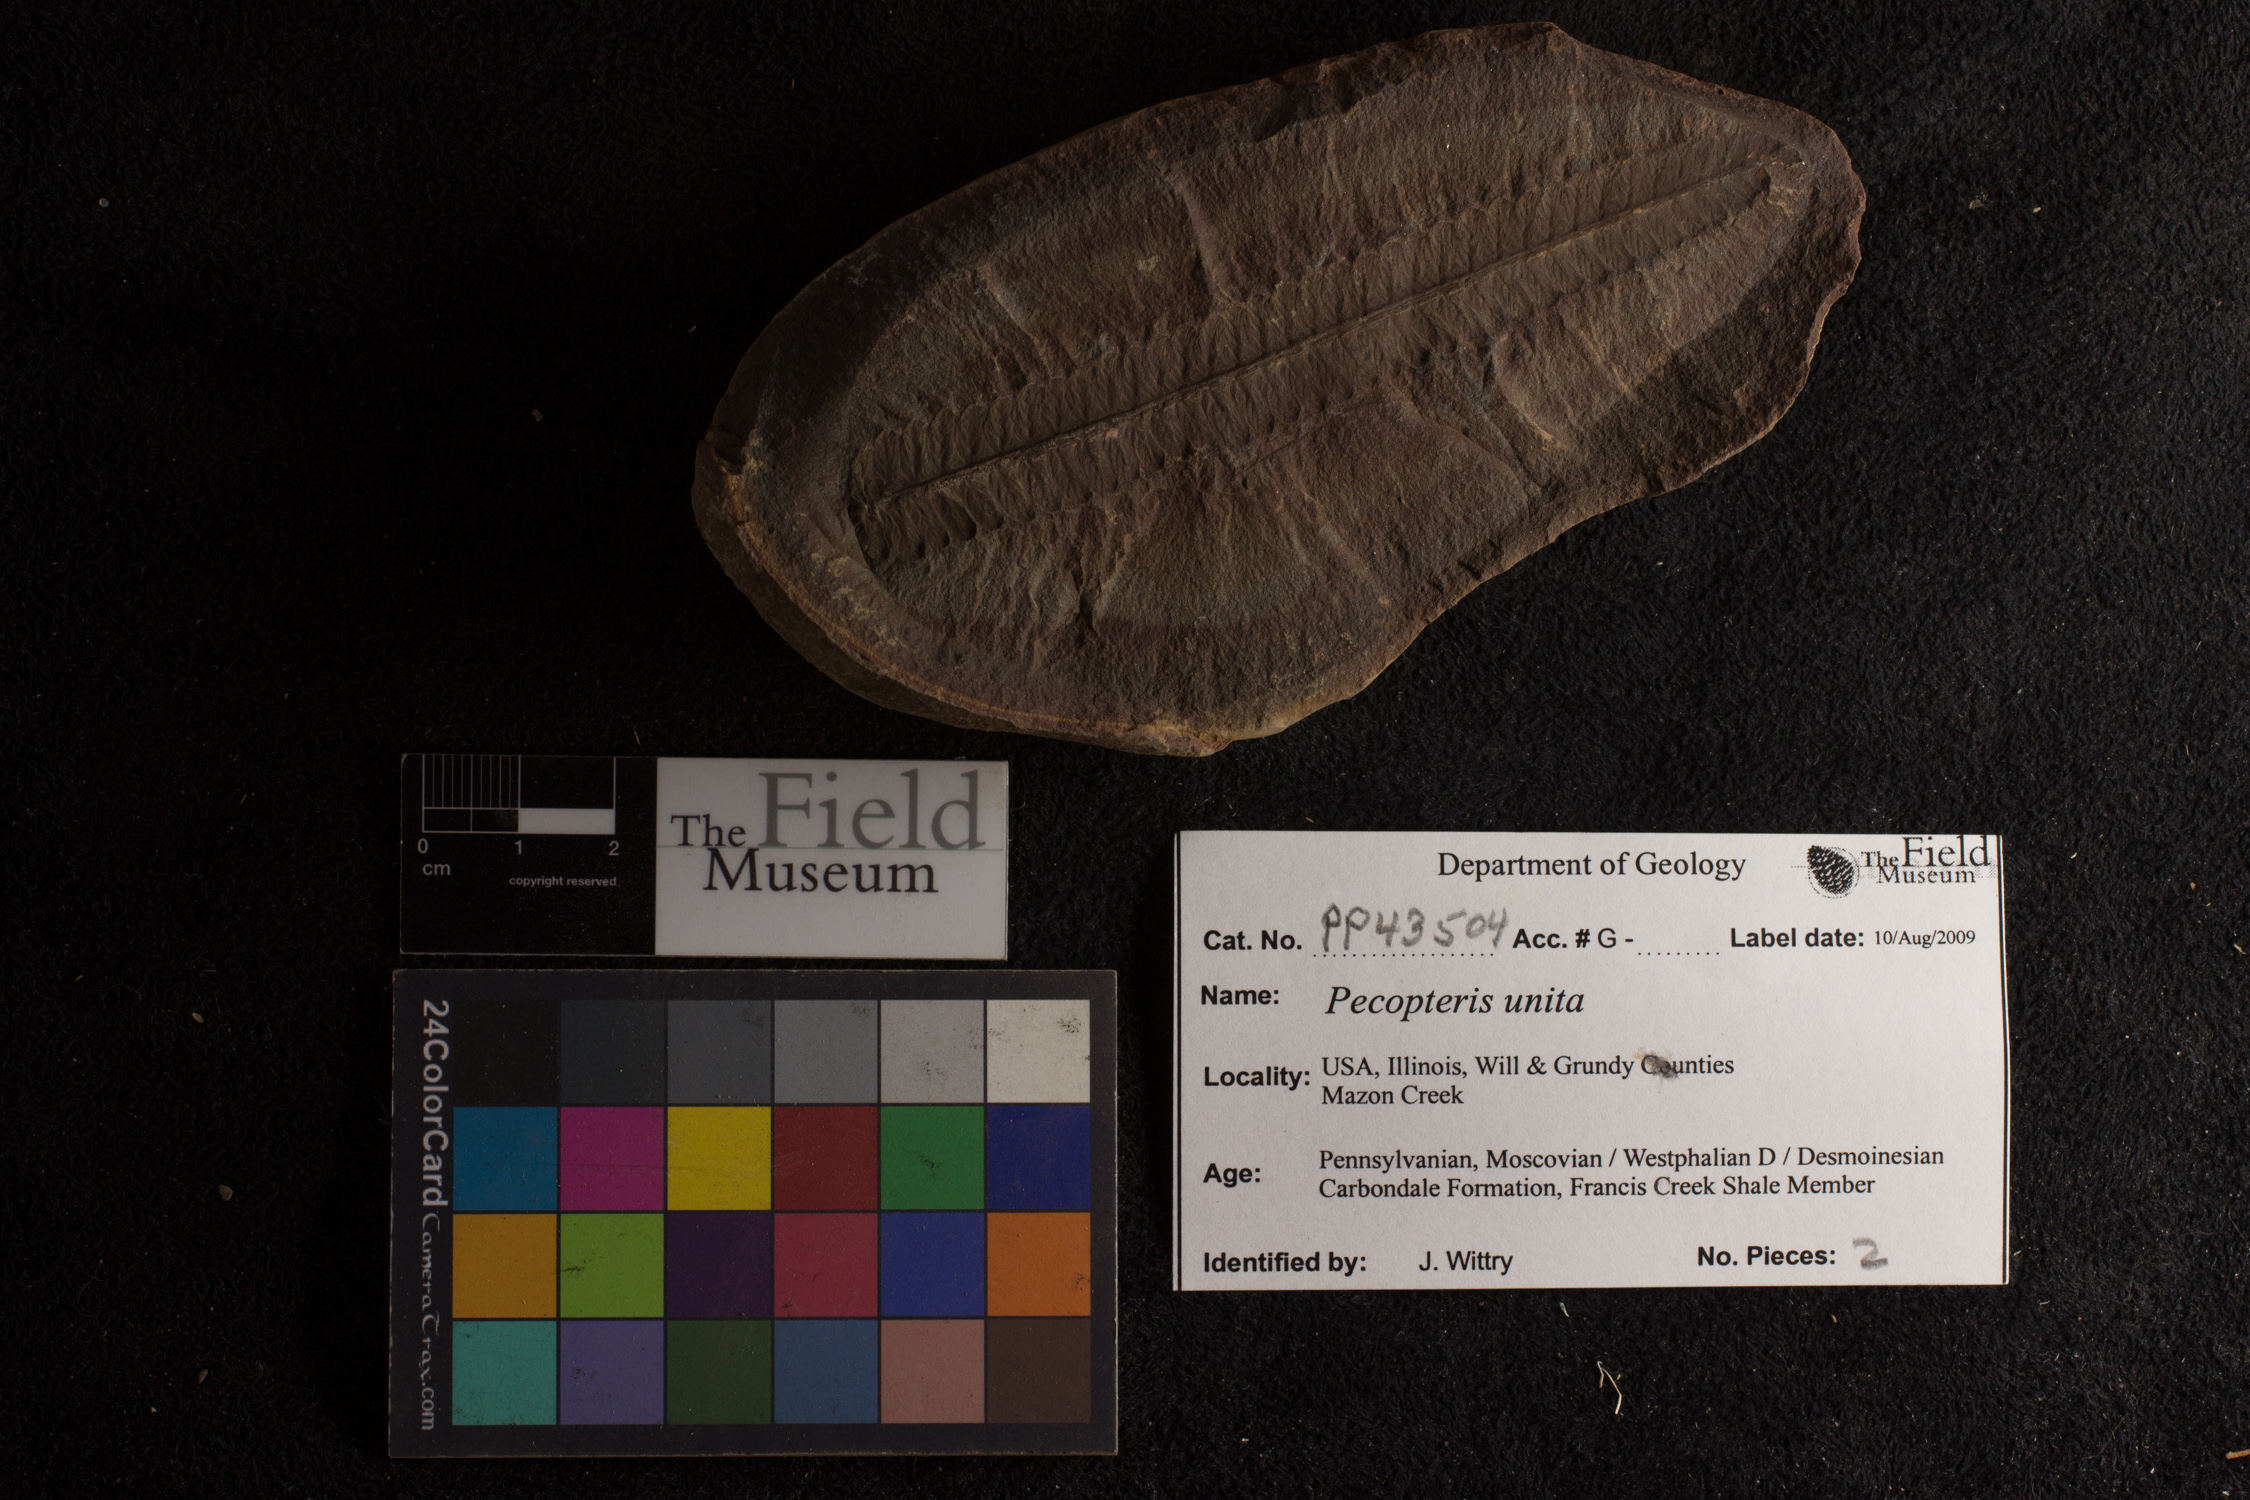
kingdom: Plantae
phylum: Tracheophyta
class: Polypodiopsida
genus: Diplazites
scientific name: Diplazites
